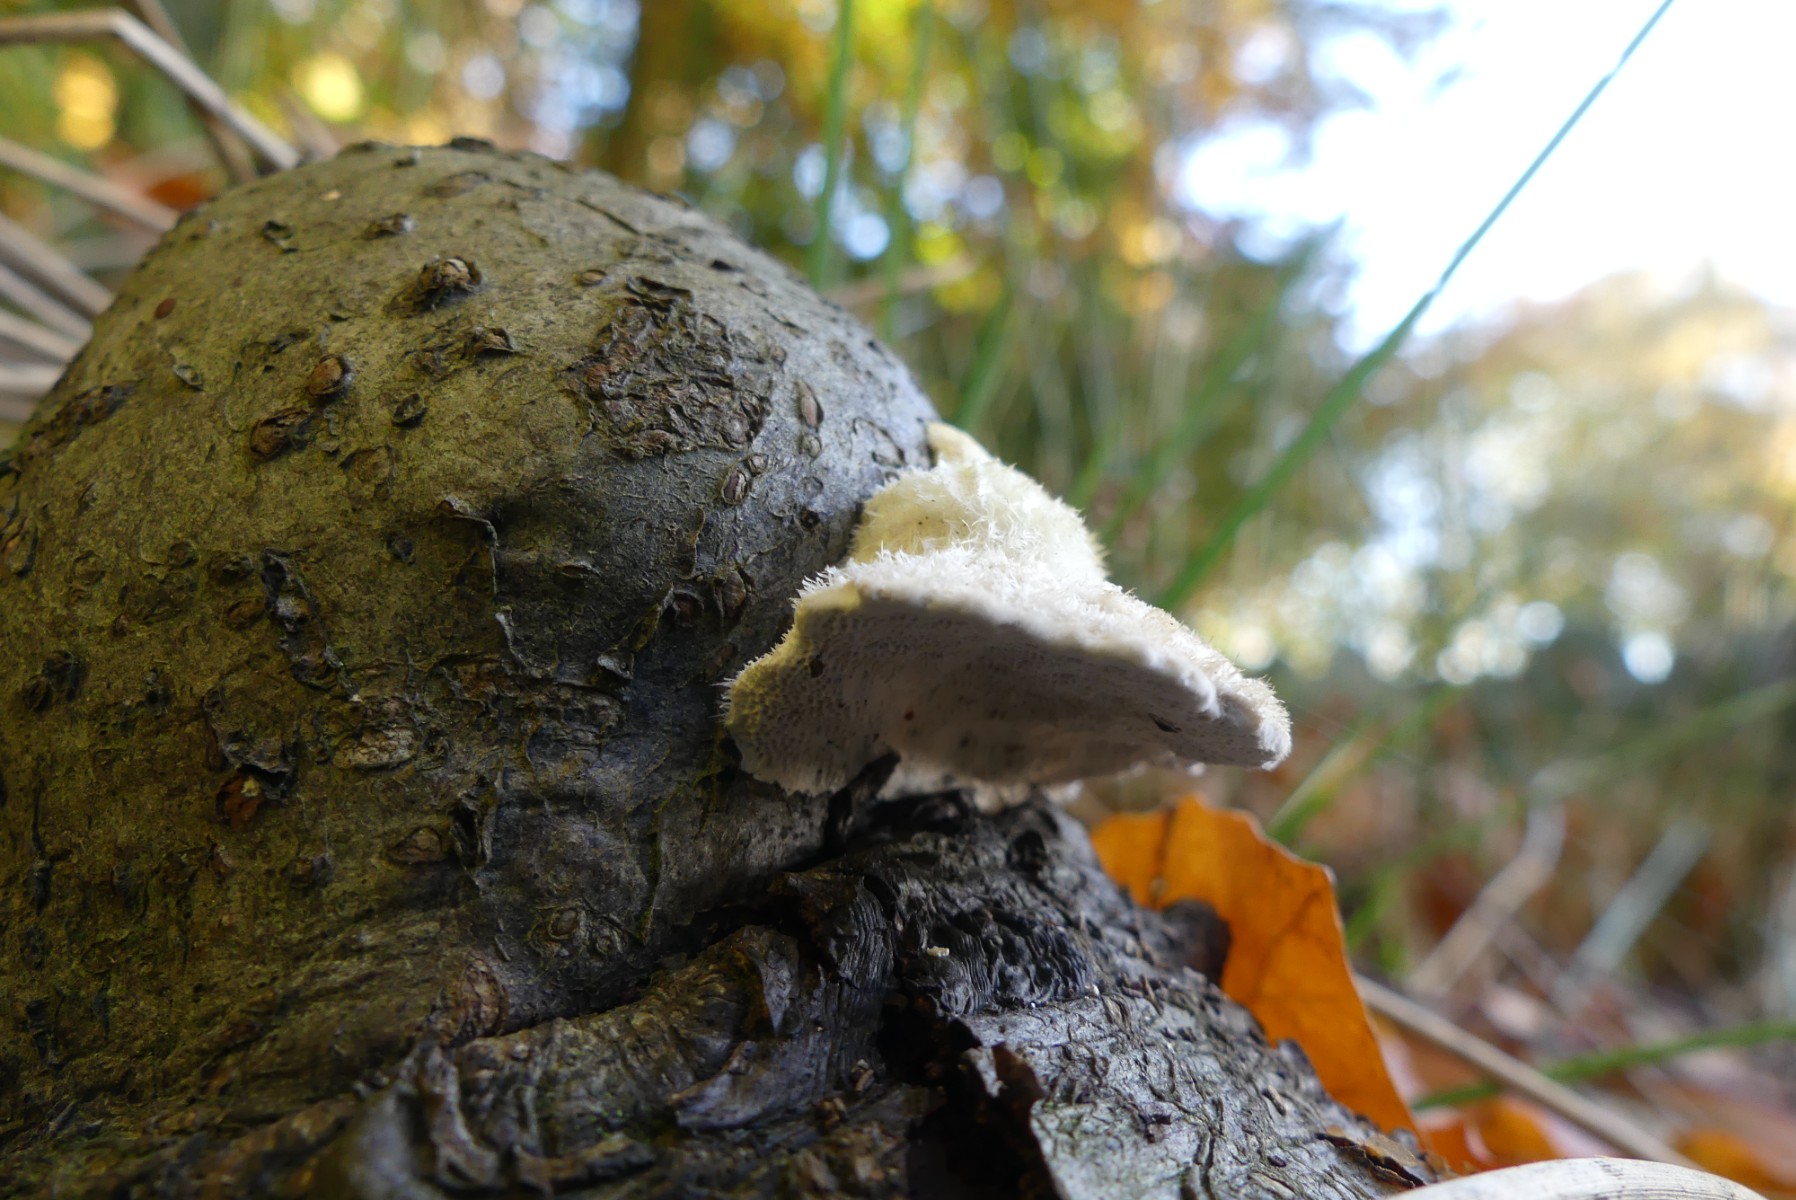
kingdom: Fungi
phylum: Basidiomycota
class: Agaricomycetes
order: Polyporales
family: Polyporaceae
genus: Trametes
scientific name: Trametes hirsuta
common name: håret læderporesvamp
